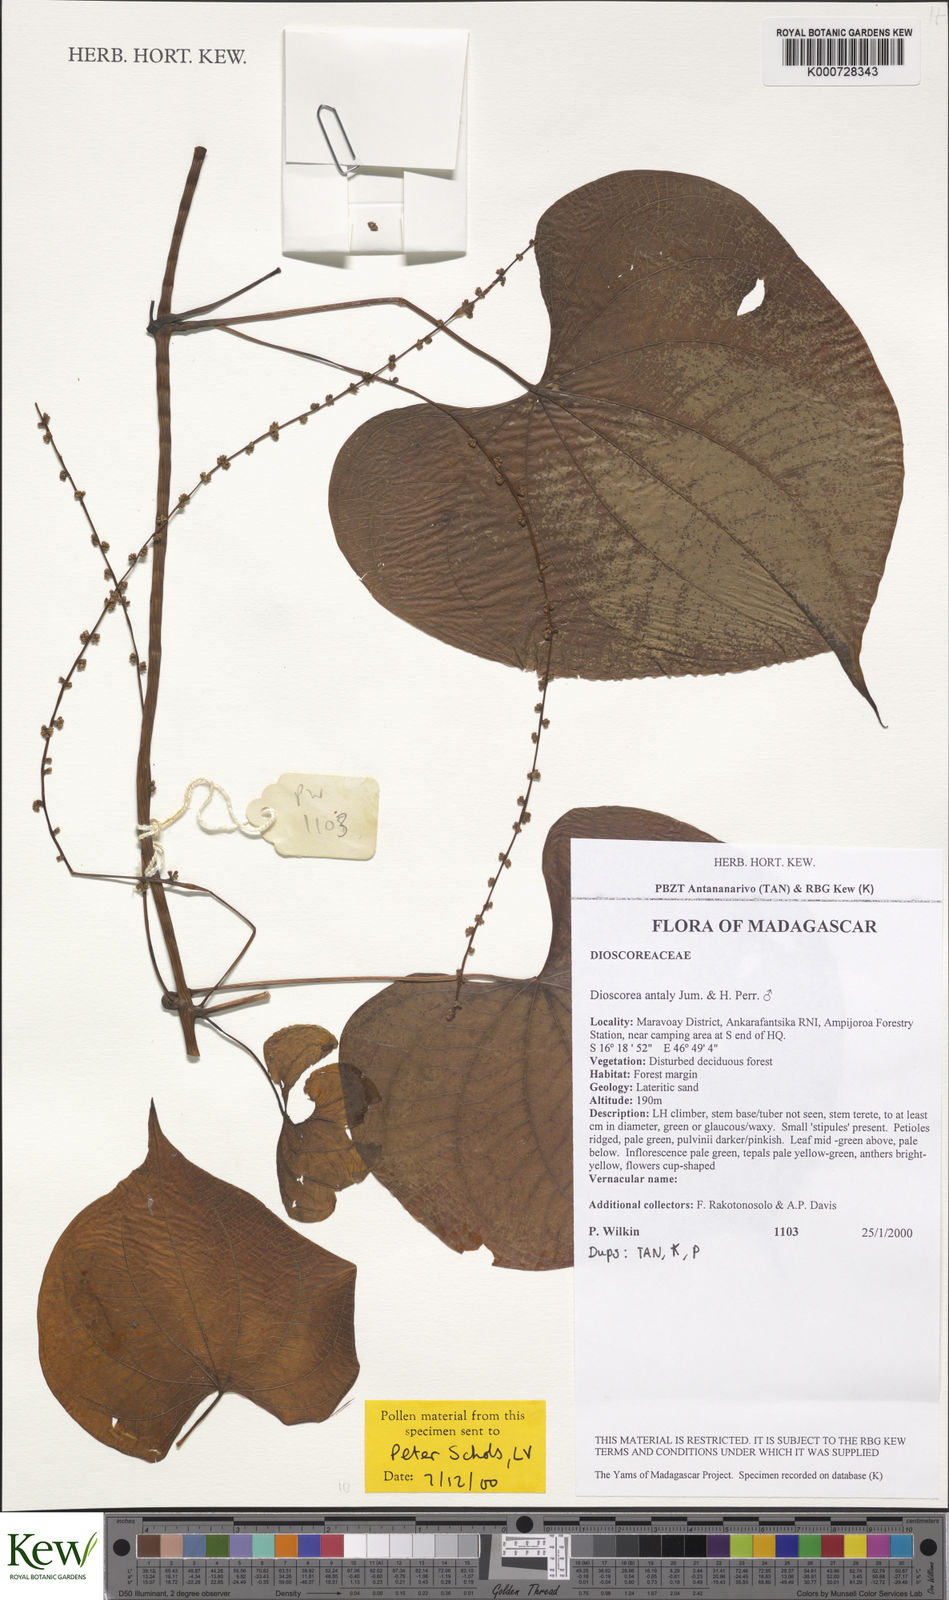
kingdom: Plantae
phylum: Tracheophyta
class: Liliopsida
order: Dioscoreales
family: Dioscoreaceae
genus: Dioscorea
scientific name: Dioscorea antaly
